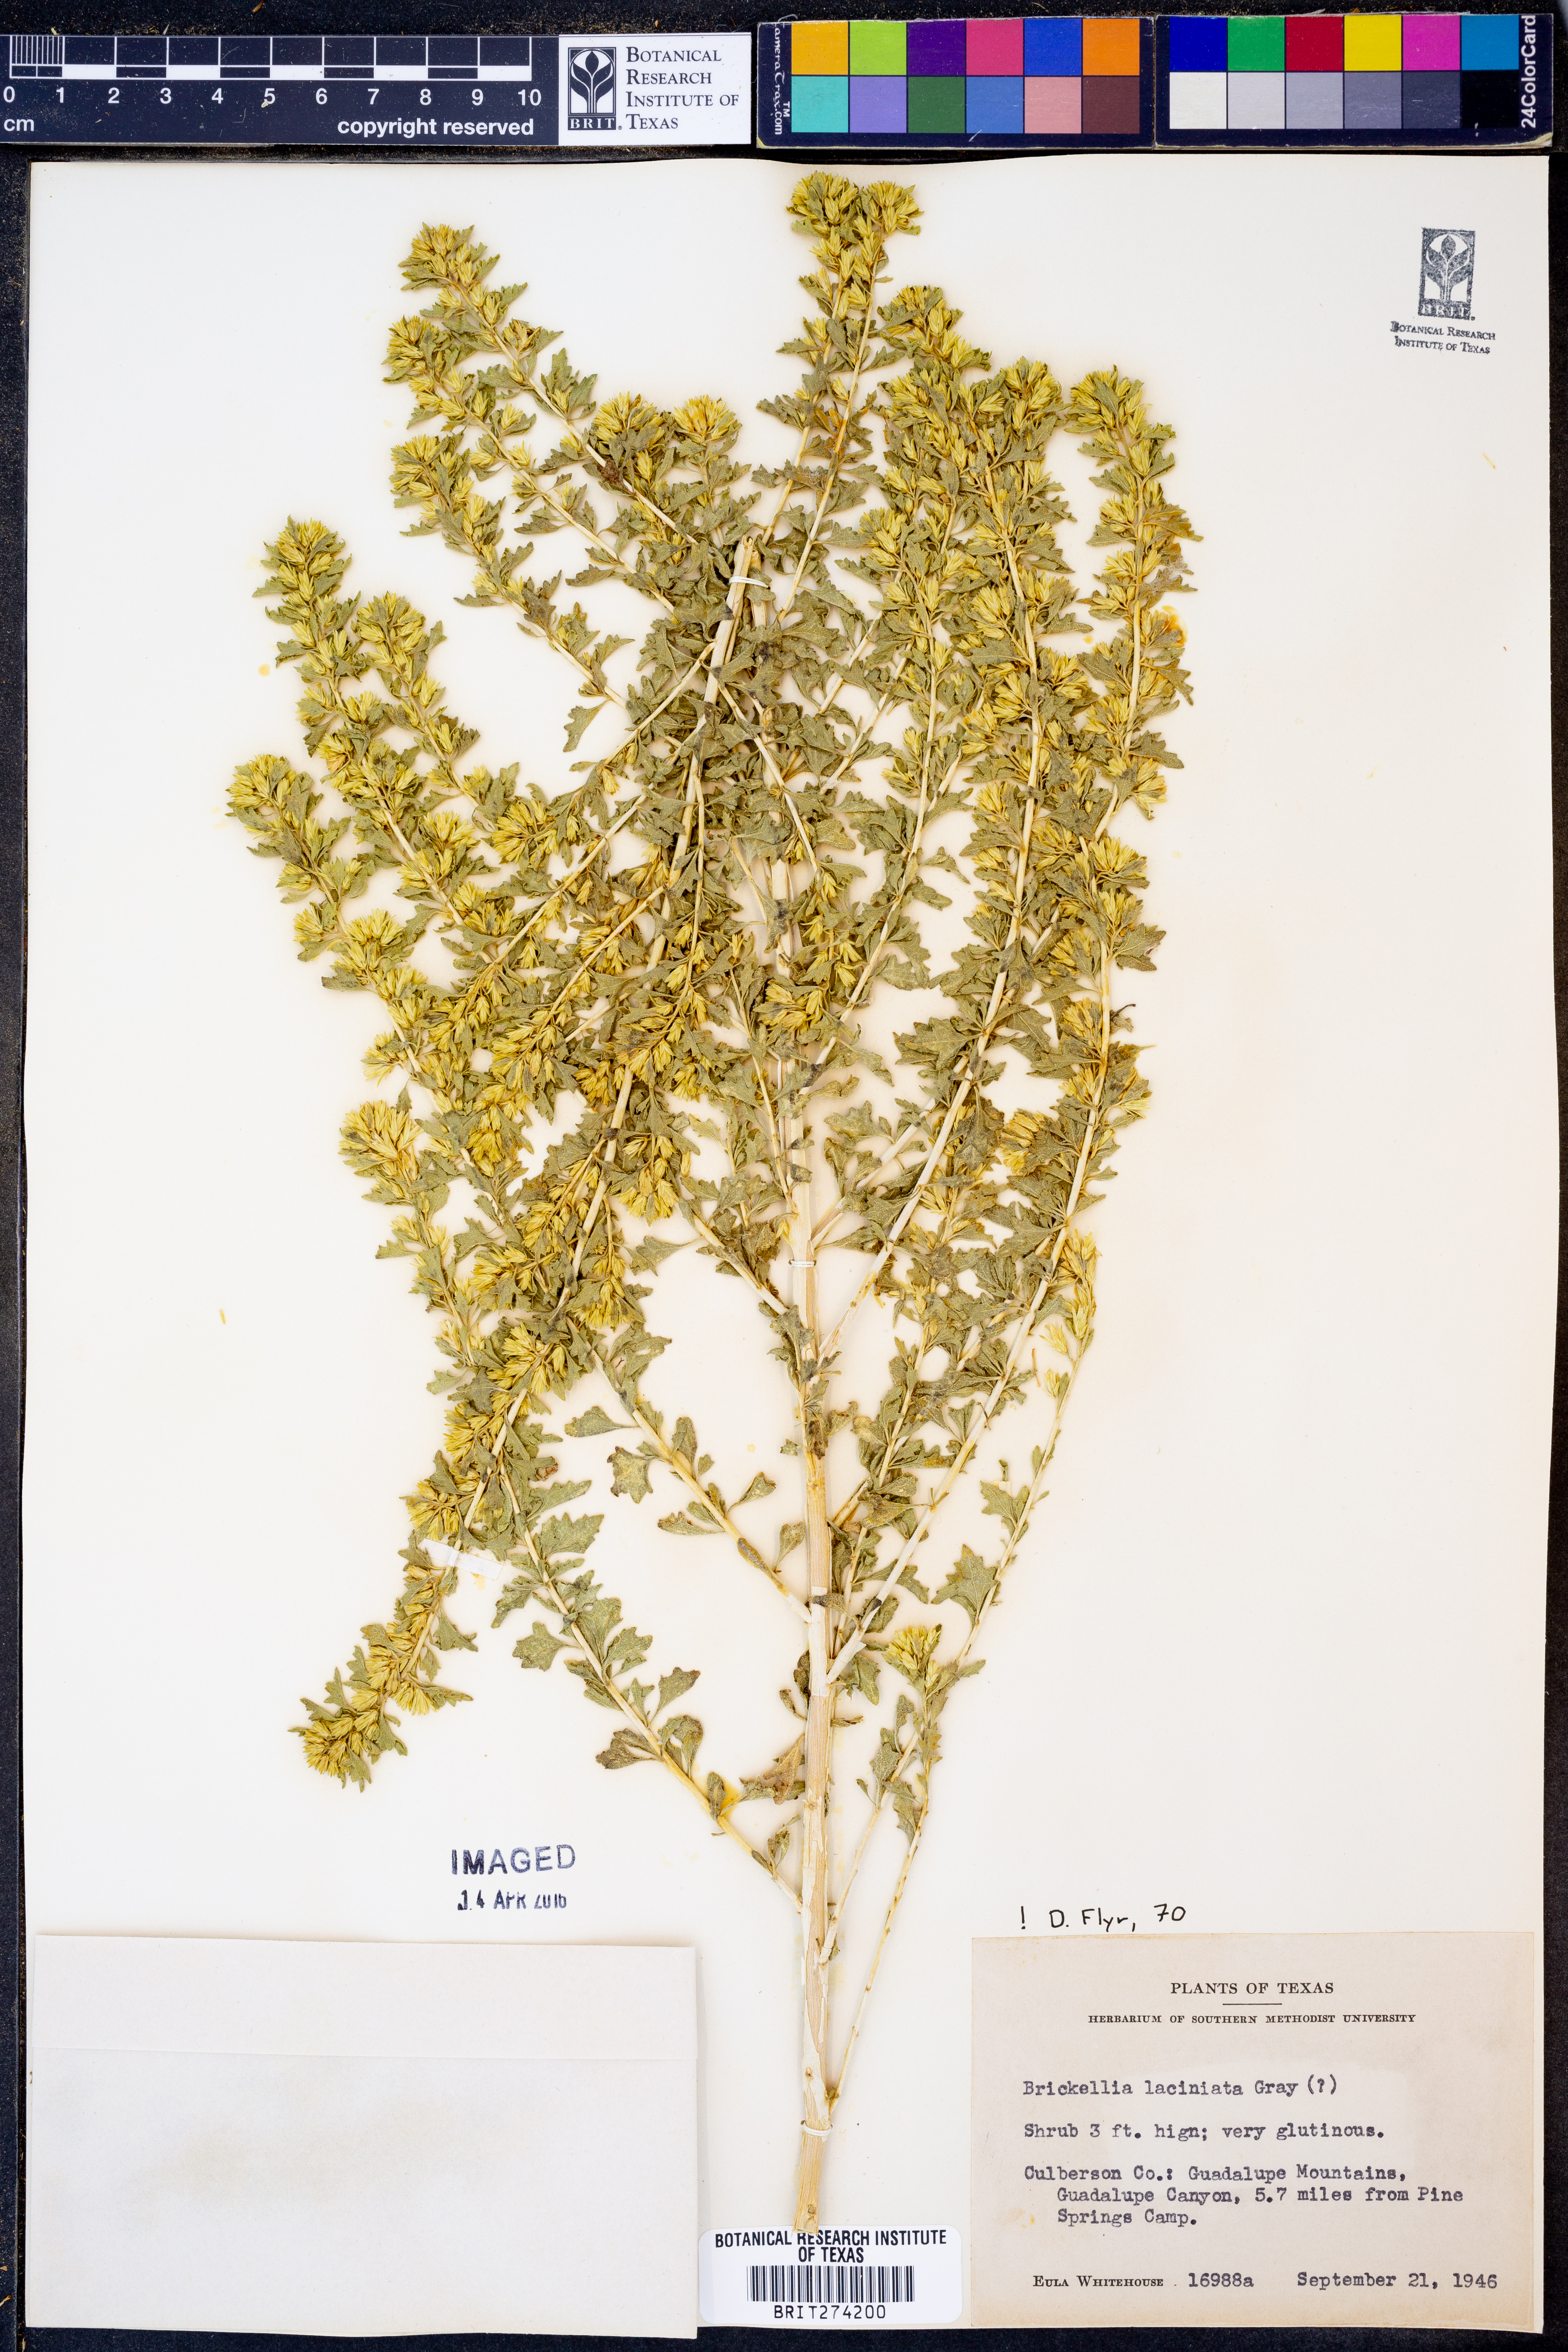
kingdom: Plantae
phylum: Tracheophyta
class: Magnoliopsida
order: Asterales
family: Asteraceae
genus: Brickellia
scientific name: Brickellia laciniata
